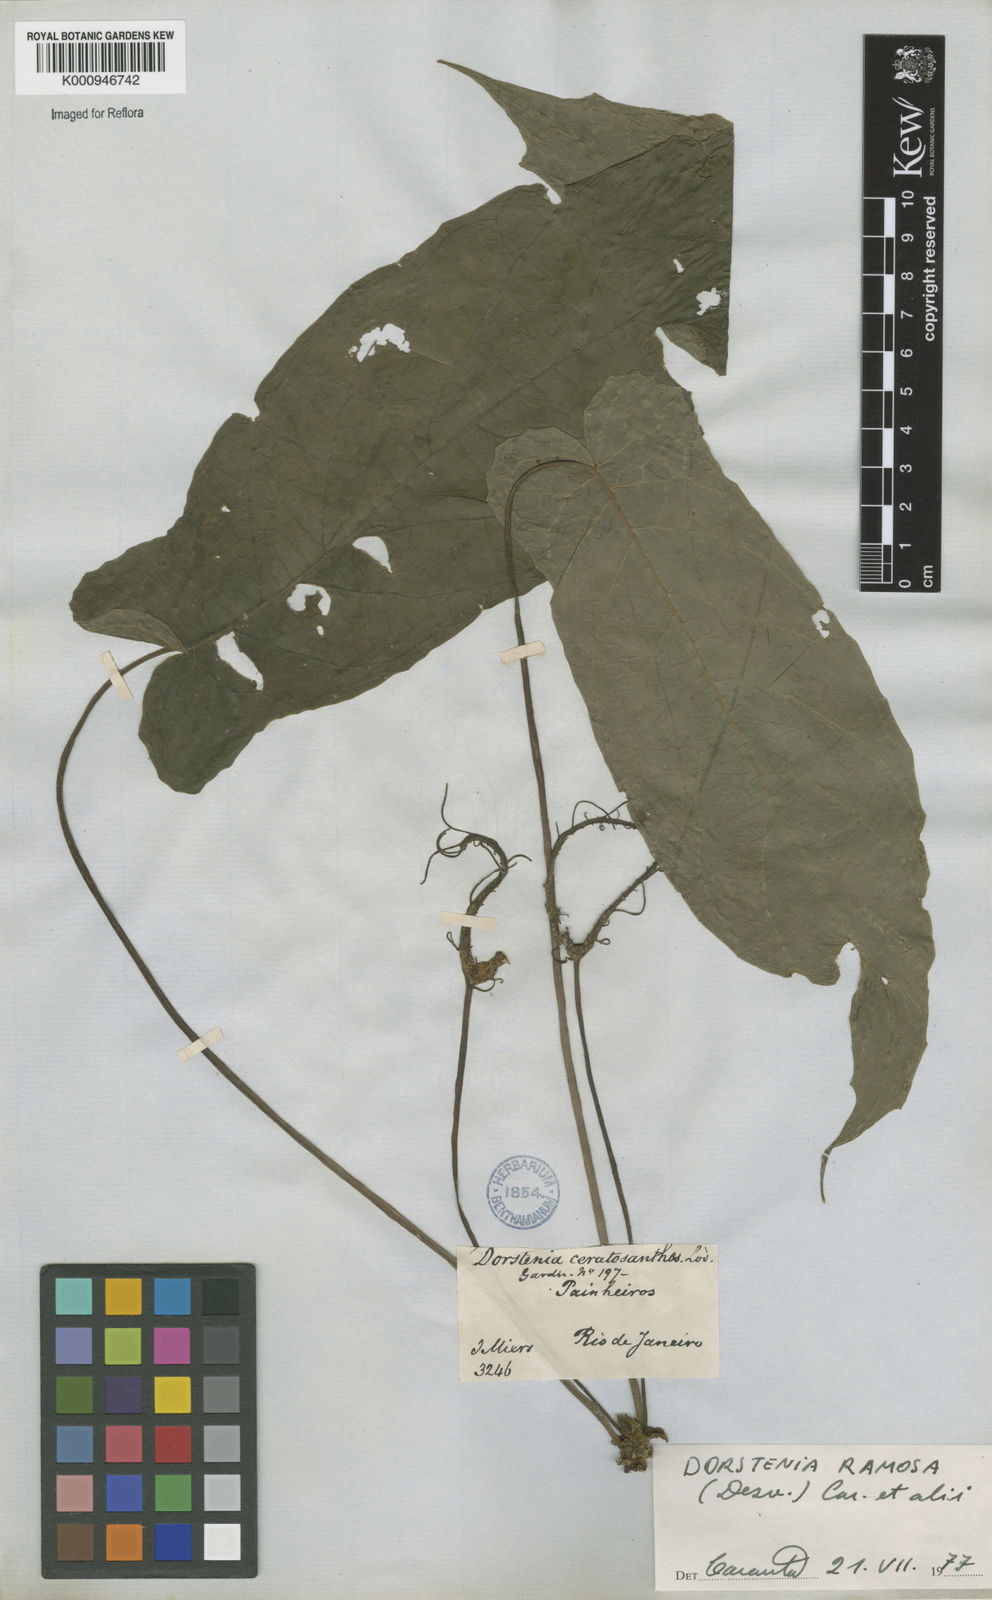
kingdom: Plantae
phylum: Tracheophyta
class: Magnoliopsida
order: Rosales
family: Moraceae
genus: Dorstenia
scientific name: Dorstenia ramosa
